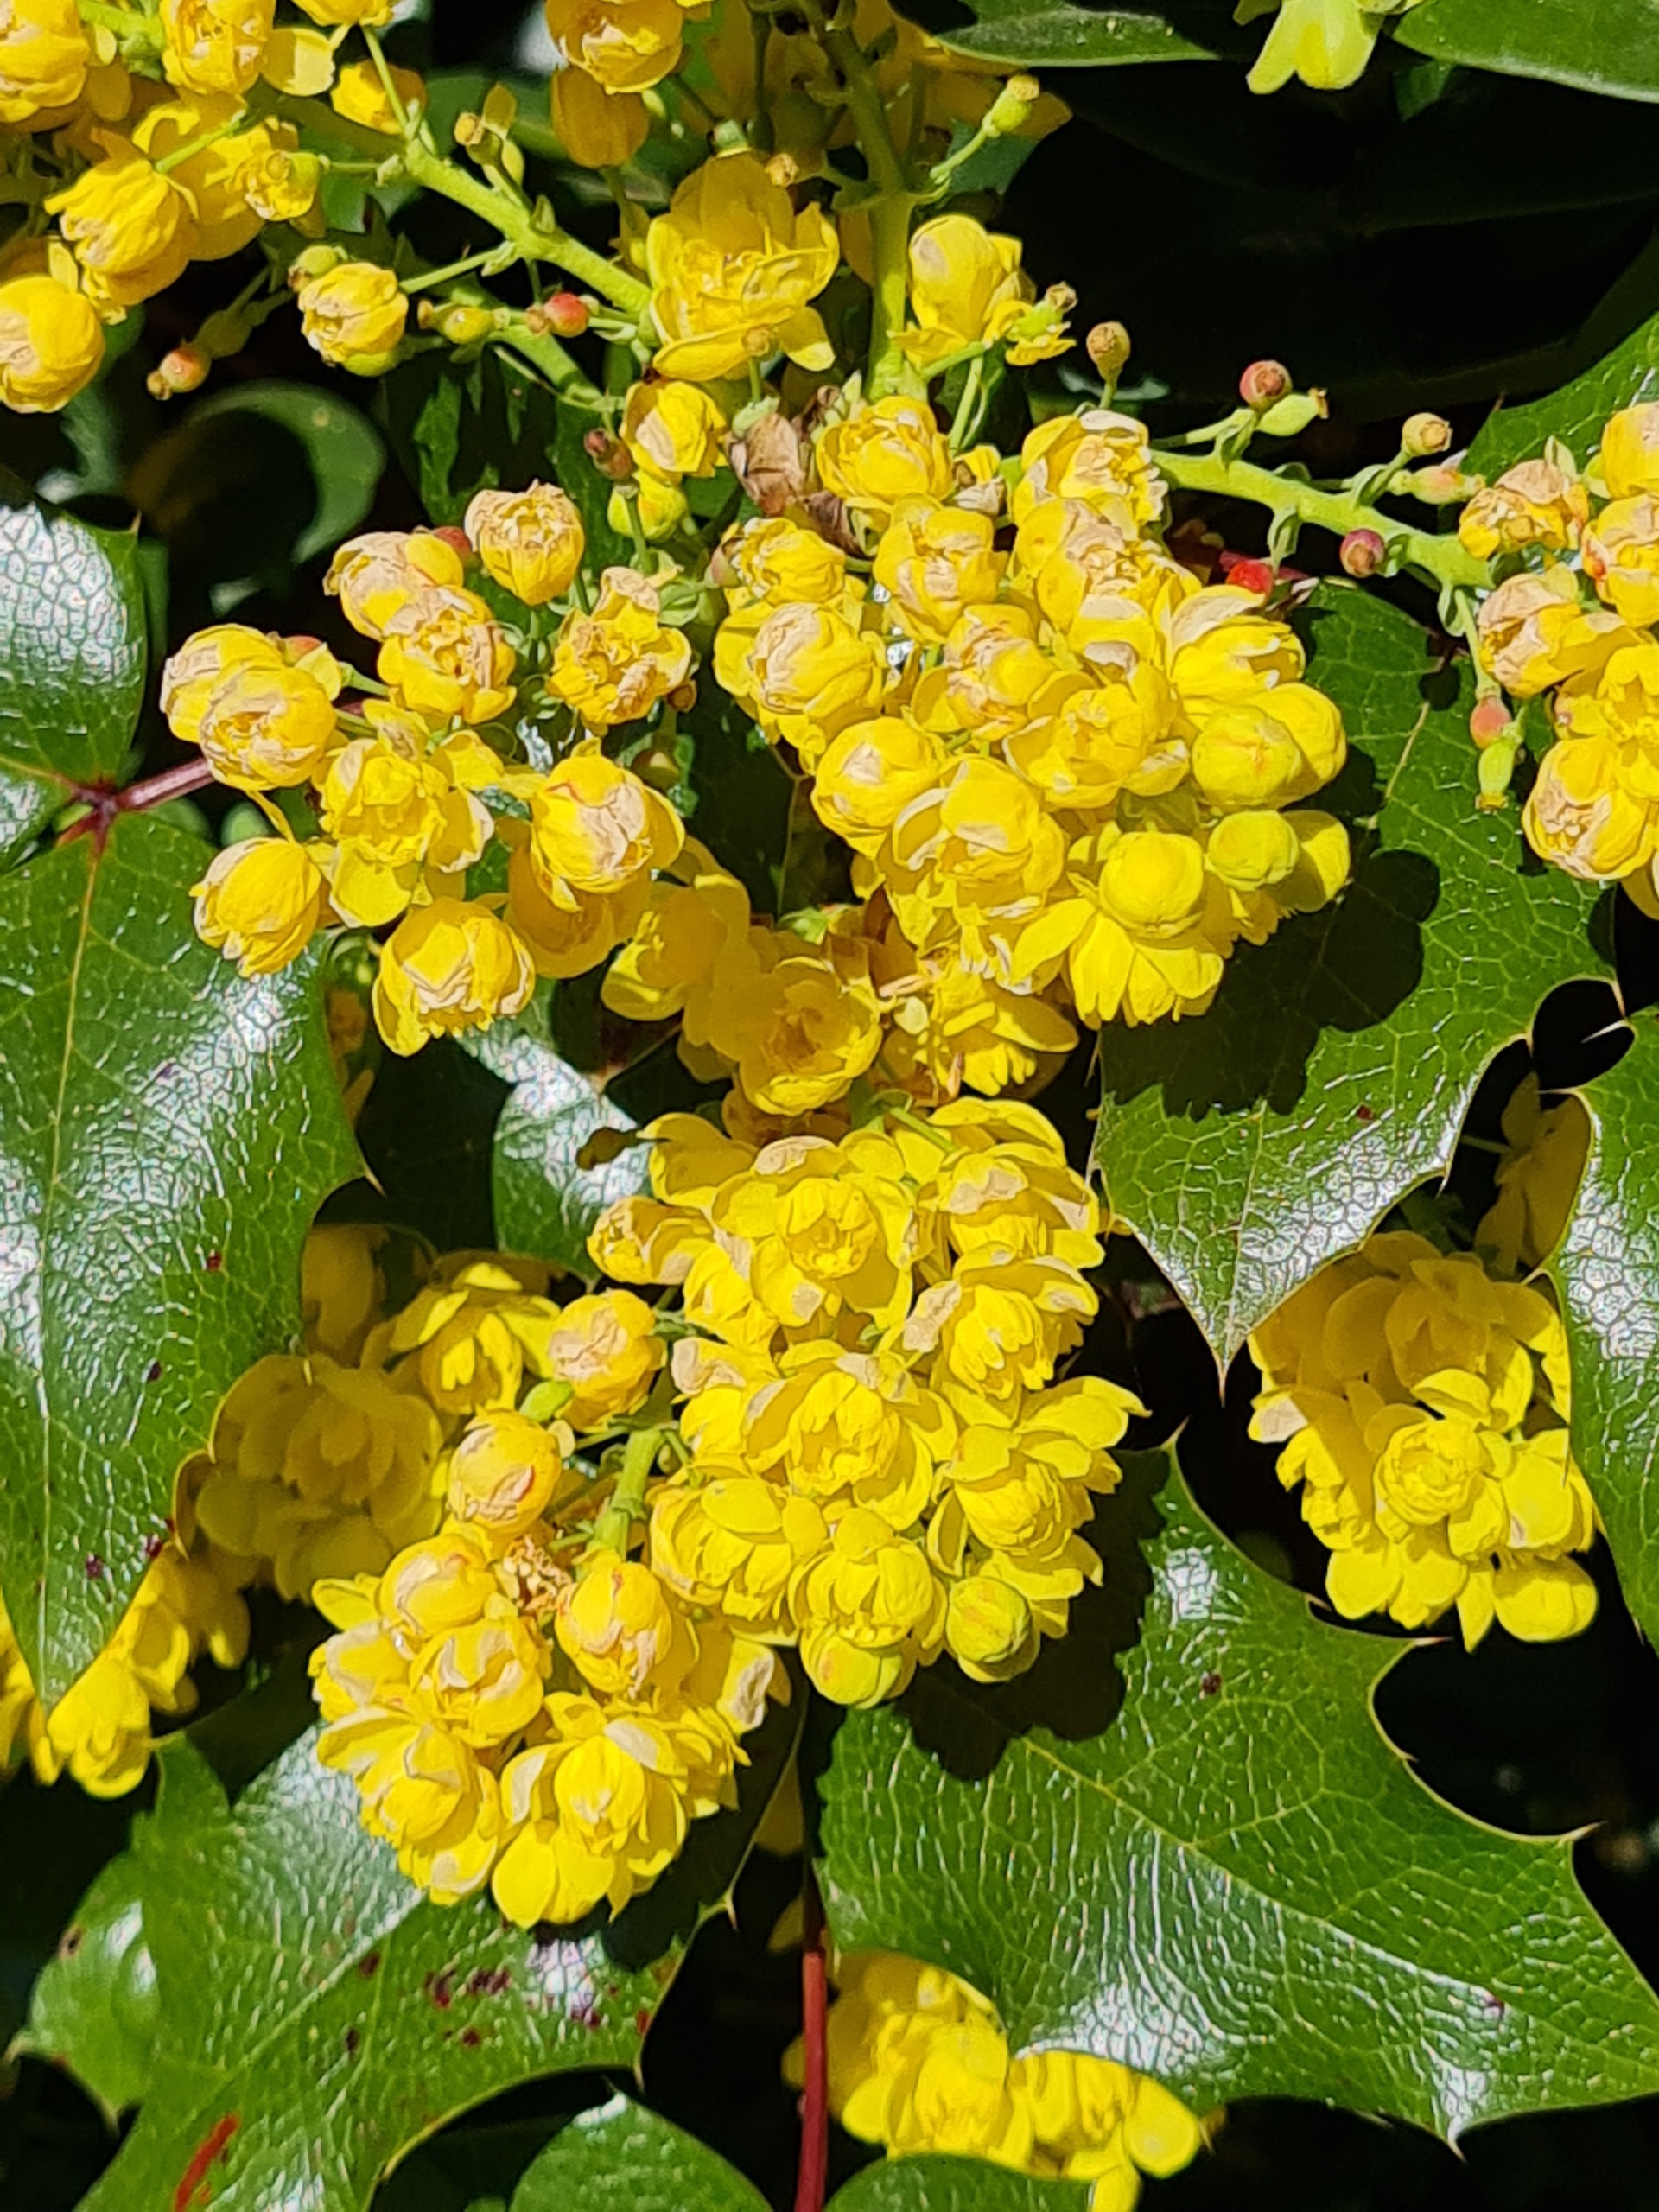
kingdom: Plantae
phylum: Tracheophyta
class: Magnoliopsida
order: Ranunculales
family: Berberidaceae
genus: Mahonia
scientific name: Mahonia aquifolium
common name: Almindelig mahonie
